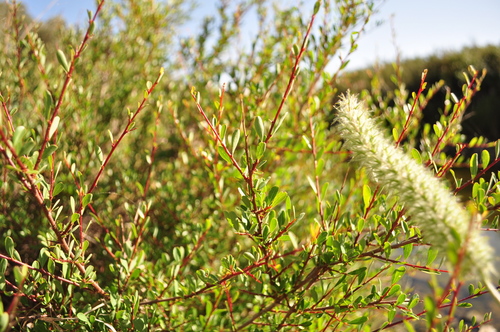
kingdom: Plantae
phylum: Tracheophyta
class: Magnoliopsida
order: Malpighiales
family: Phyllanthaceae
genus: Flueggea
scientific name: Flueggea tinctoria
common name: Tamujo
